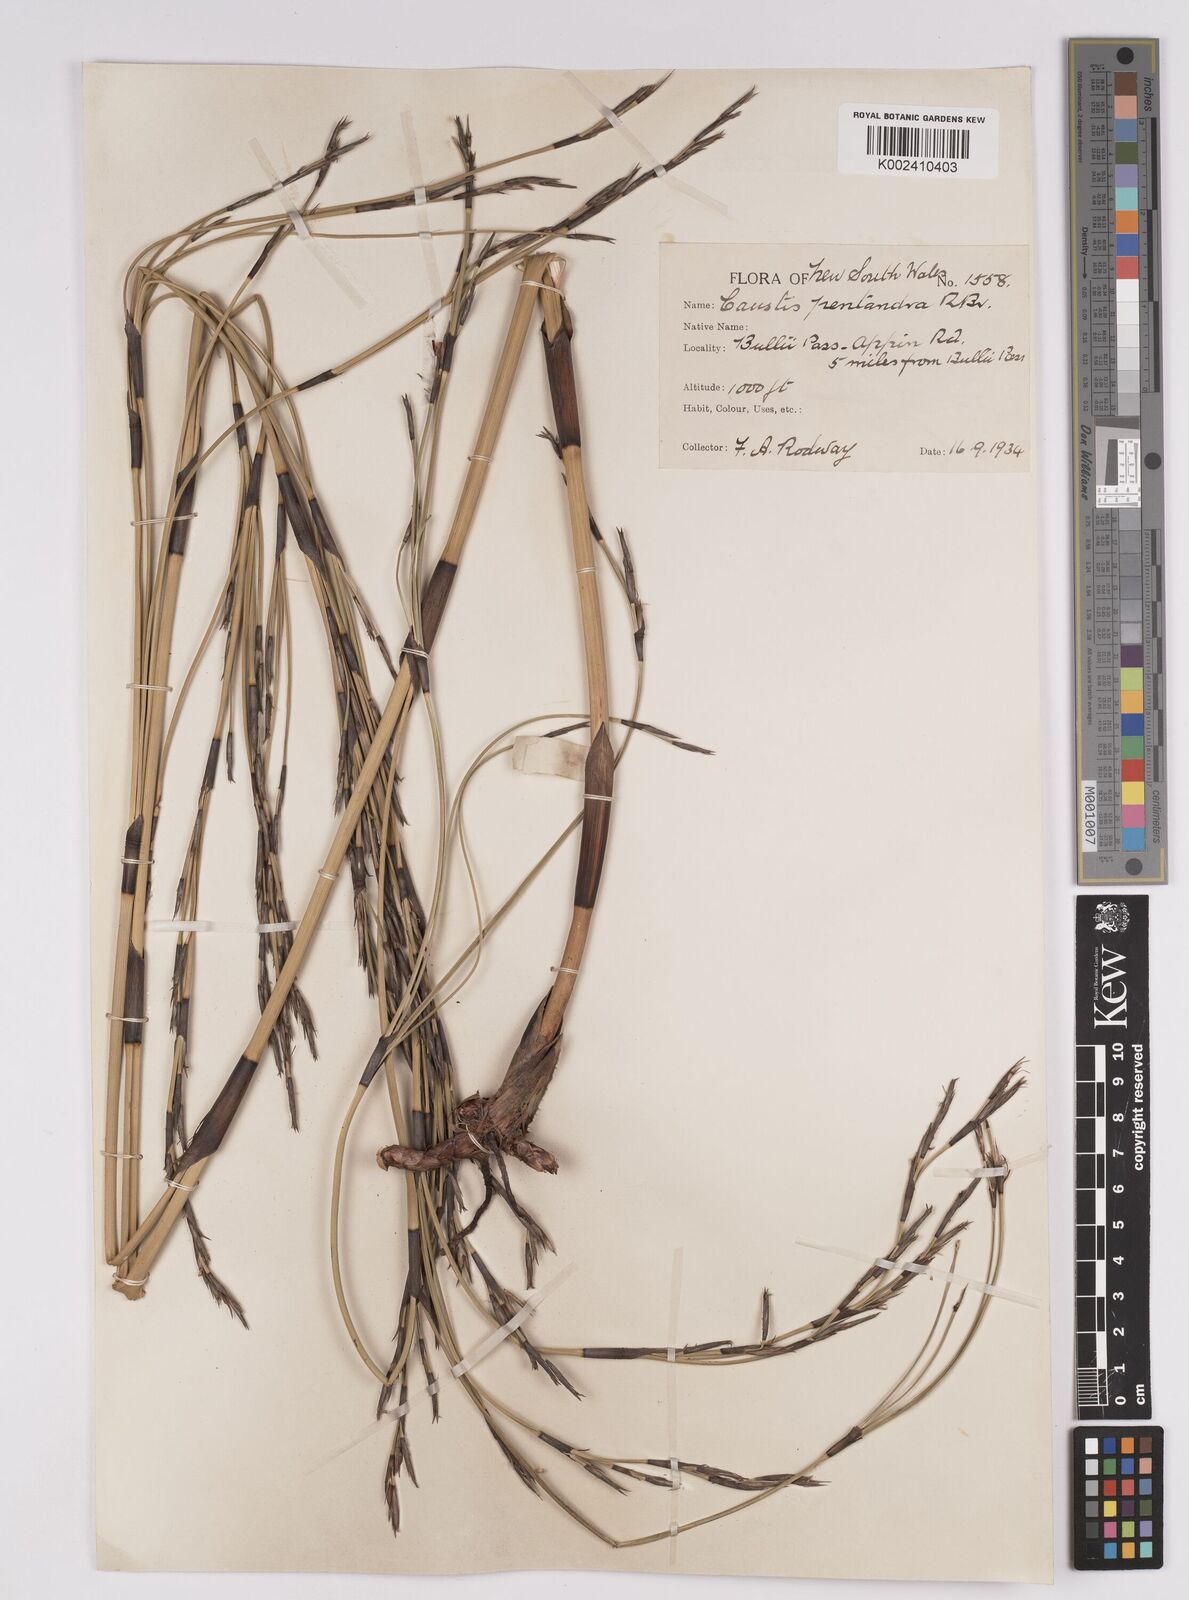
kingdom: Plantae
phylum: Tracheophyta
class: Liliopsida
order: Poales
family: Cyperaceae
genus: Caustis
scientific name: Caustis pentandra
